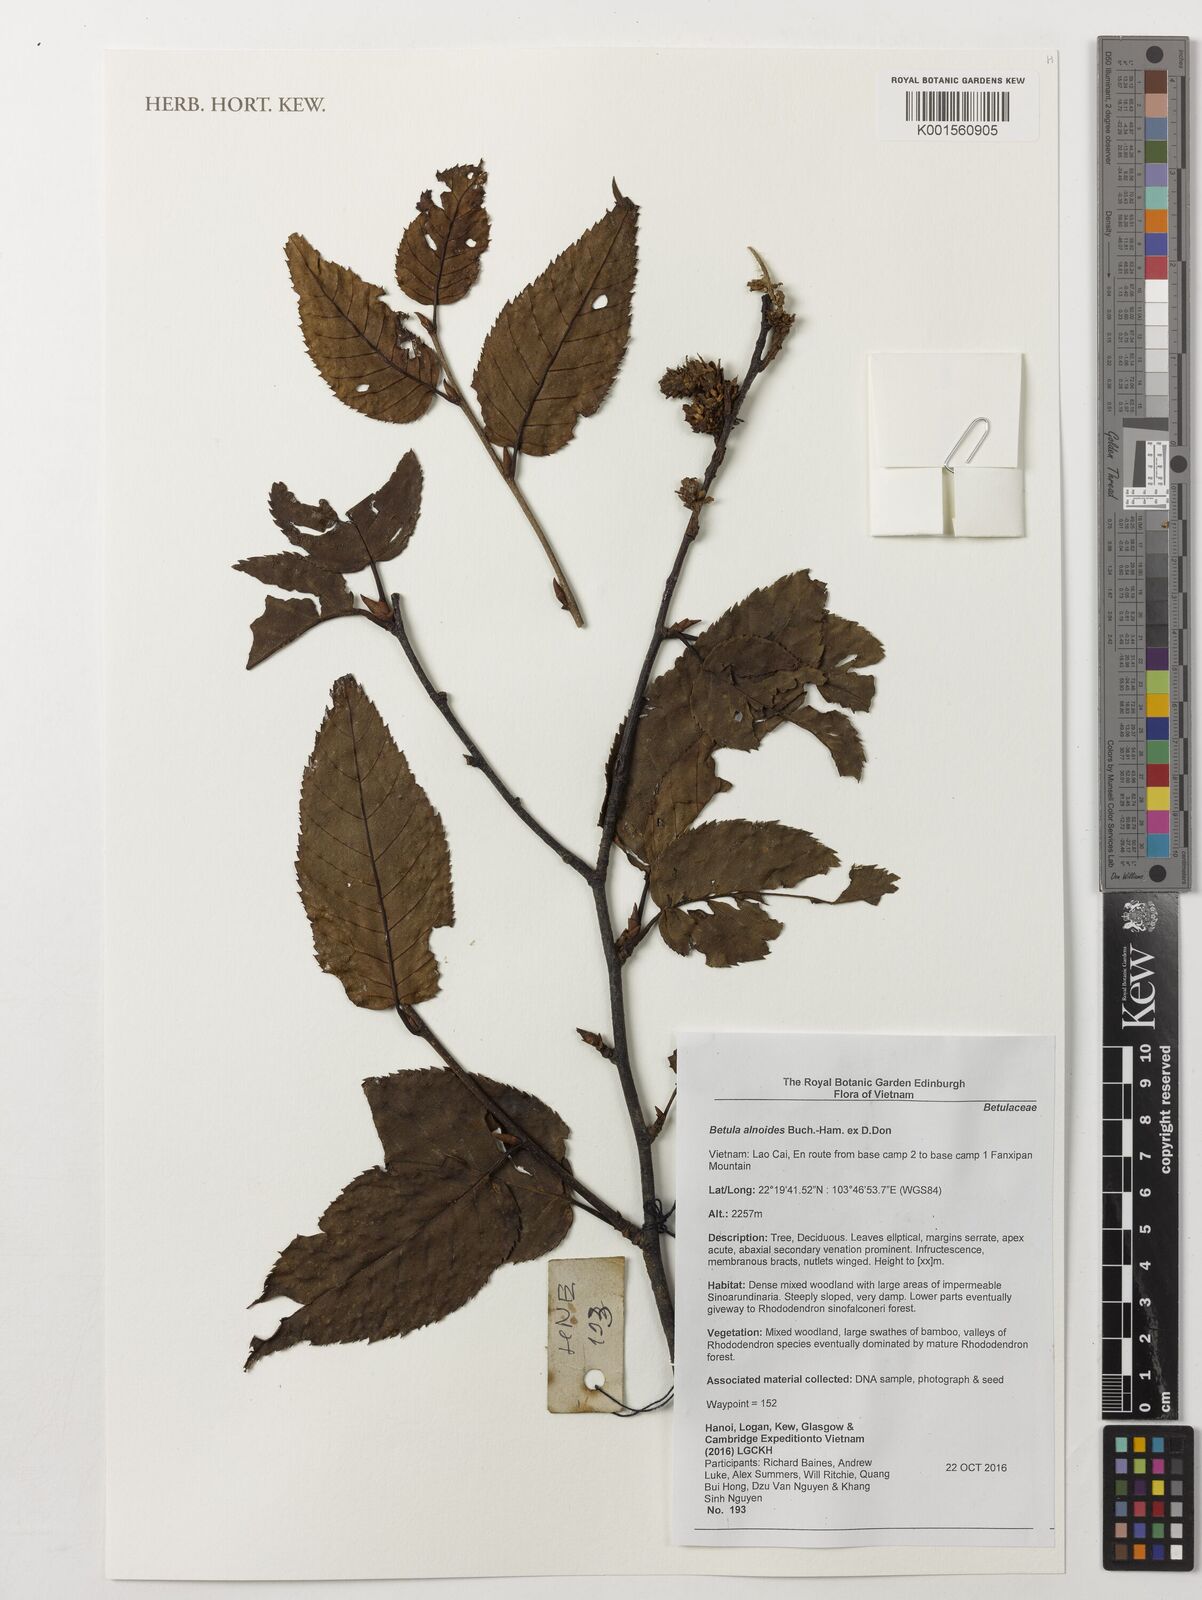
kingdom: Plantae
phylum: Tracheophyta
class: Magnoliopsida
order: Fagales
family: Betulaceae
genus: Betula
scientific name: Betula alnoides
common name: Indian birch
